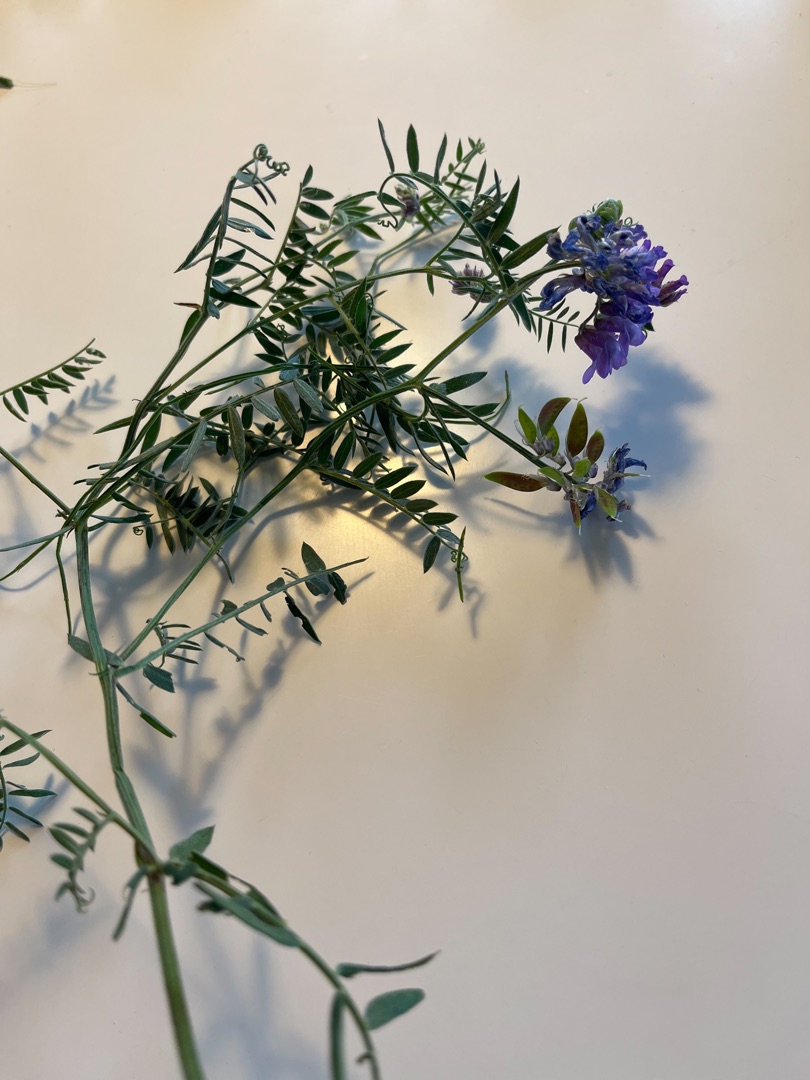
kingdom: Plantae
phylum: Tracheophyta
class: Magnoliopsida
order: Fabales
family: Fabaceae
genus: Vicia
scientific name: Vicia cracca
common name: Muse-vikke
